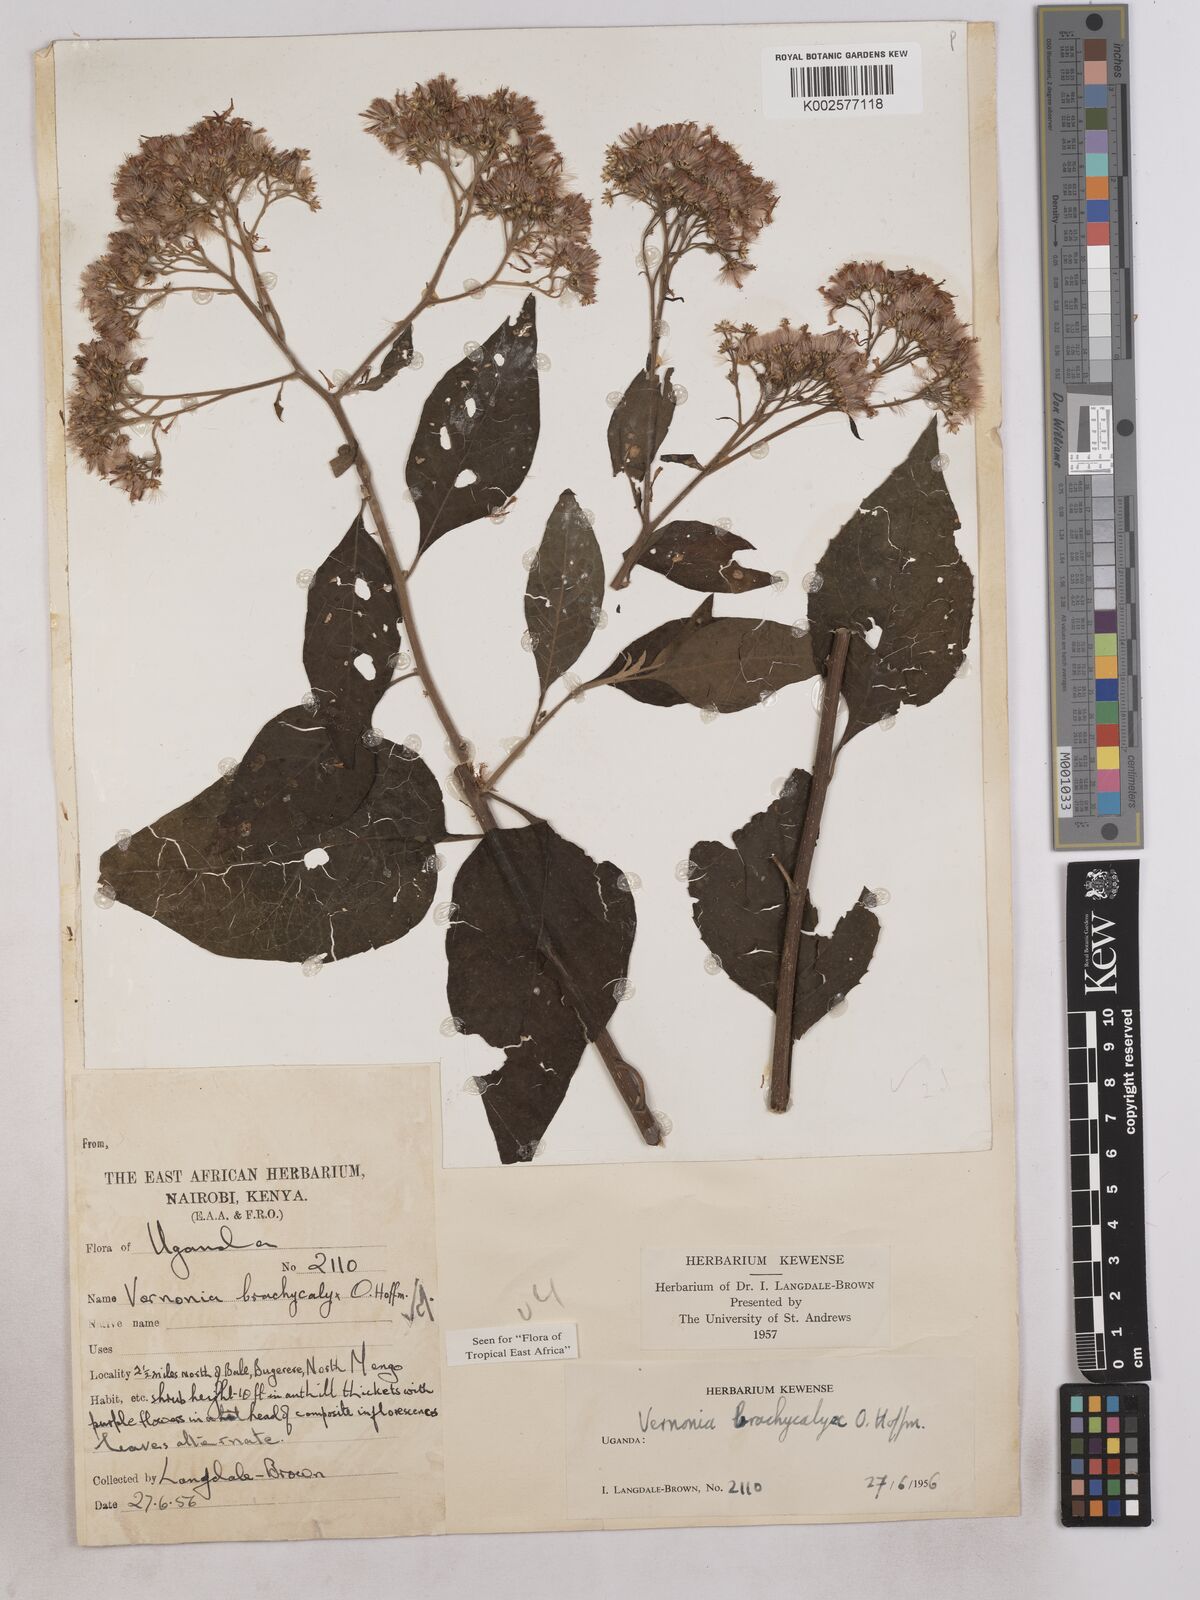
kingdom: Plantae
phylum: Tracheophyta
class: Magnoliopsida
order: Asterales
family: Asteraceae
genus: Hoffmannanthus
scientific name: Hoffmannanthus abbotianus
